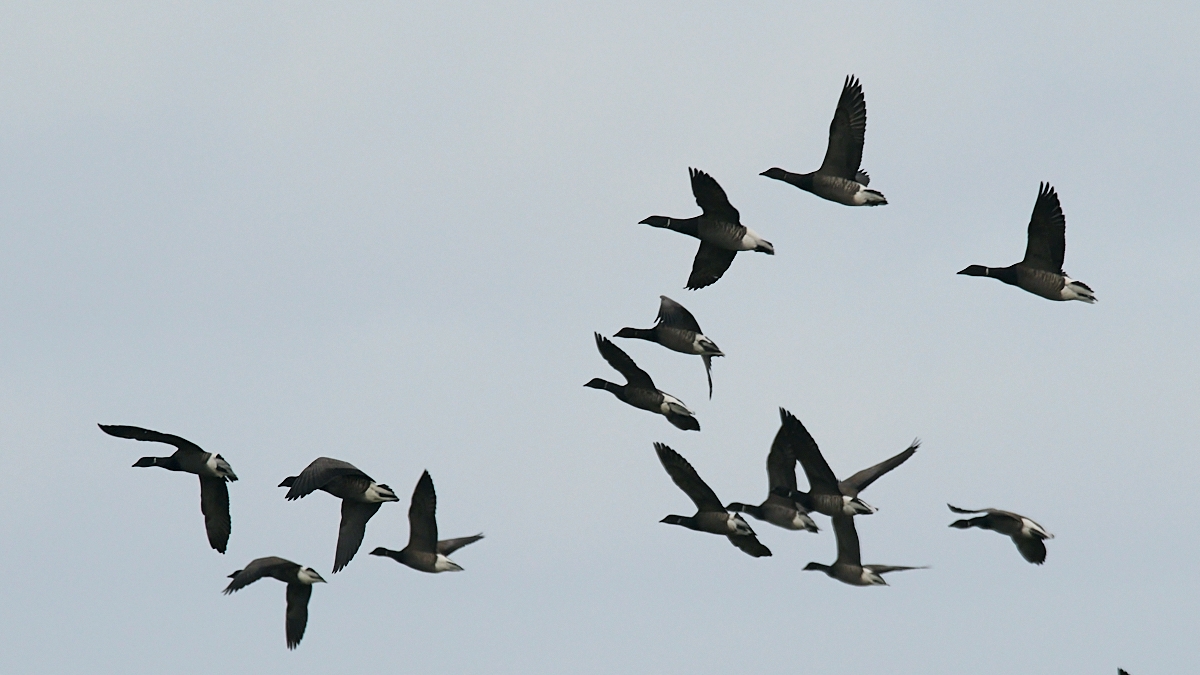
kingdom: Animalia
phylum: Chordata
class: Aves
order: Anseriformes
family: Anatidae
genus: Branta
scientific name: Branta bernicla
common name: Knortegås
